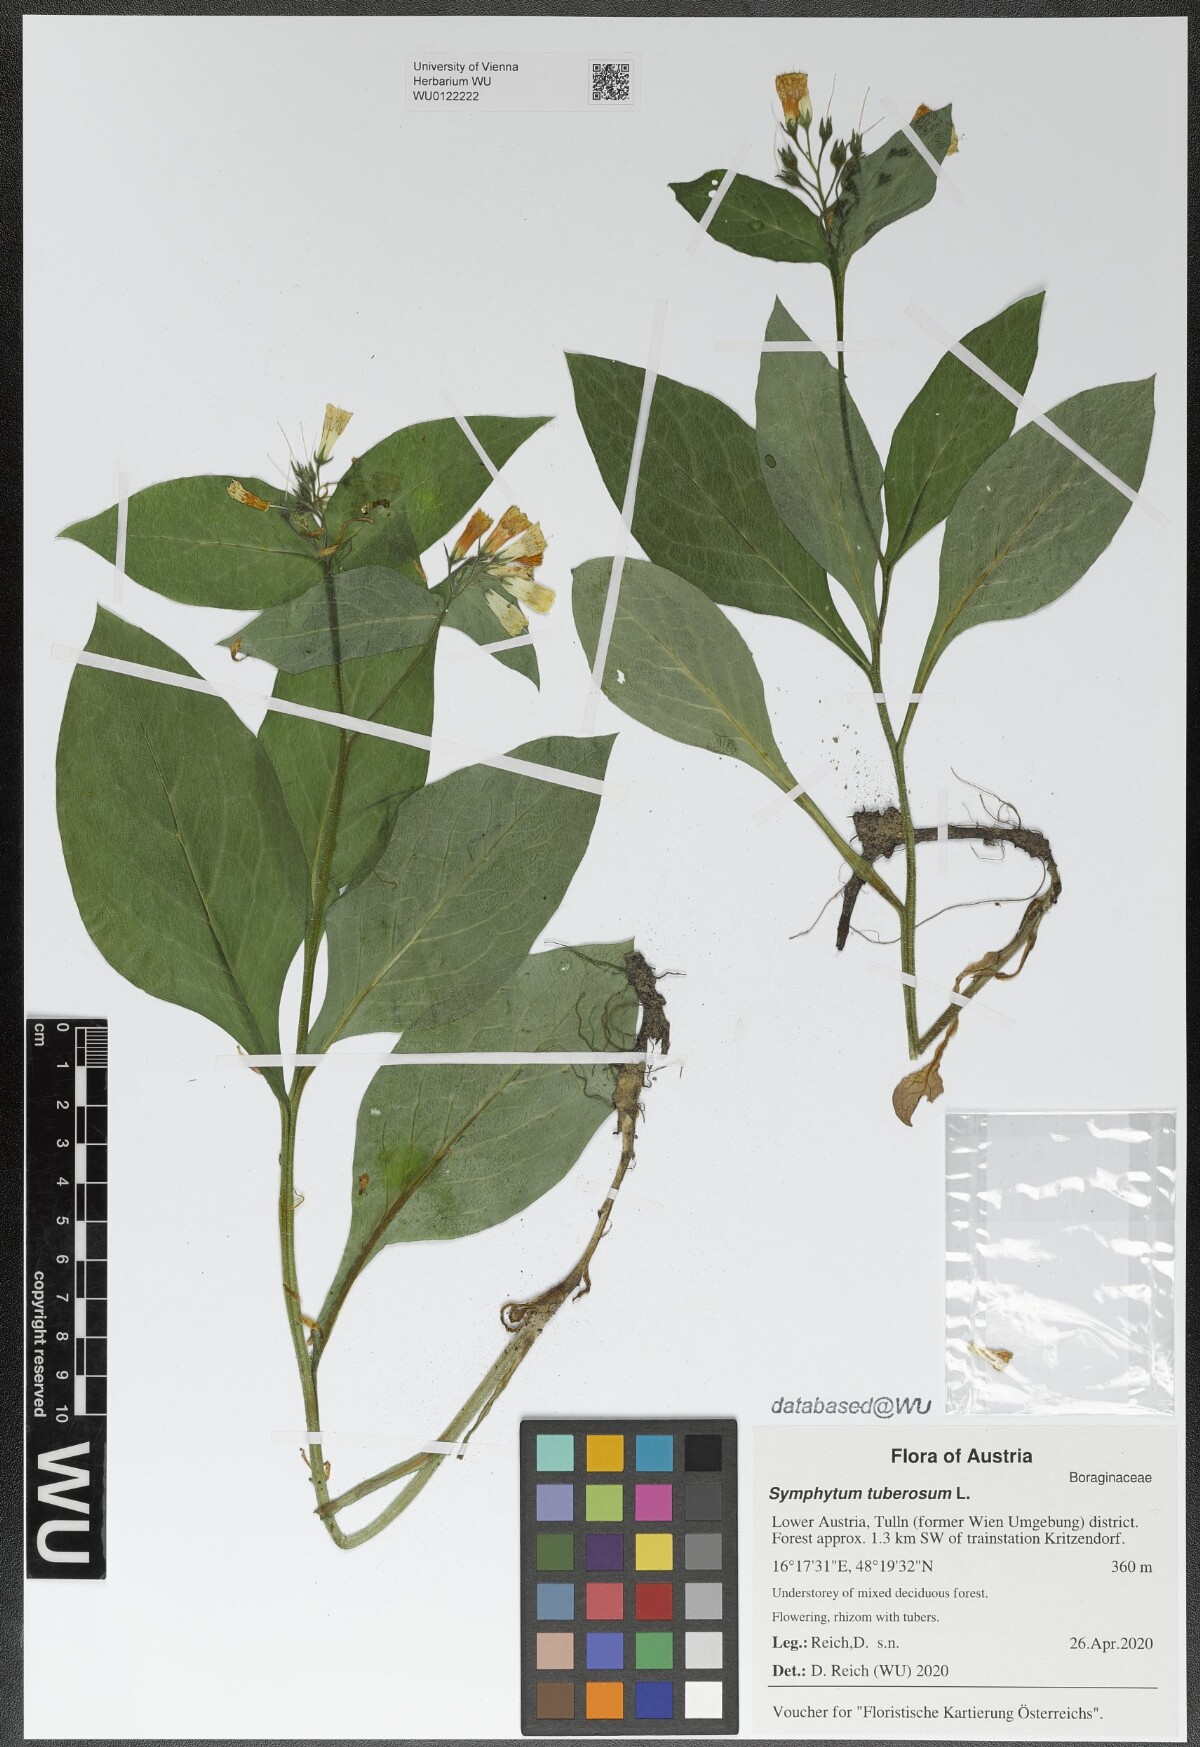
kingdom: Plantae
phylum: Tracheophyta
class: Magnoliopsida
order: Boraginales
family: Boraginaceae
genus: Symphytum
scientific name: Symphytum tuberosum
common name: Tuberous comfrey
